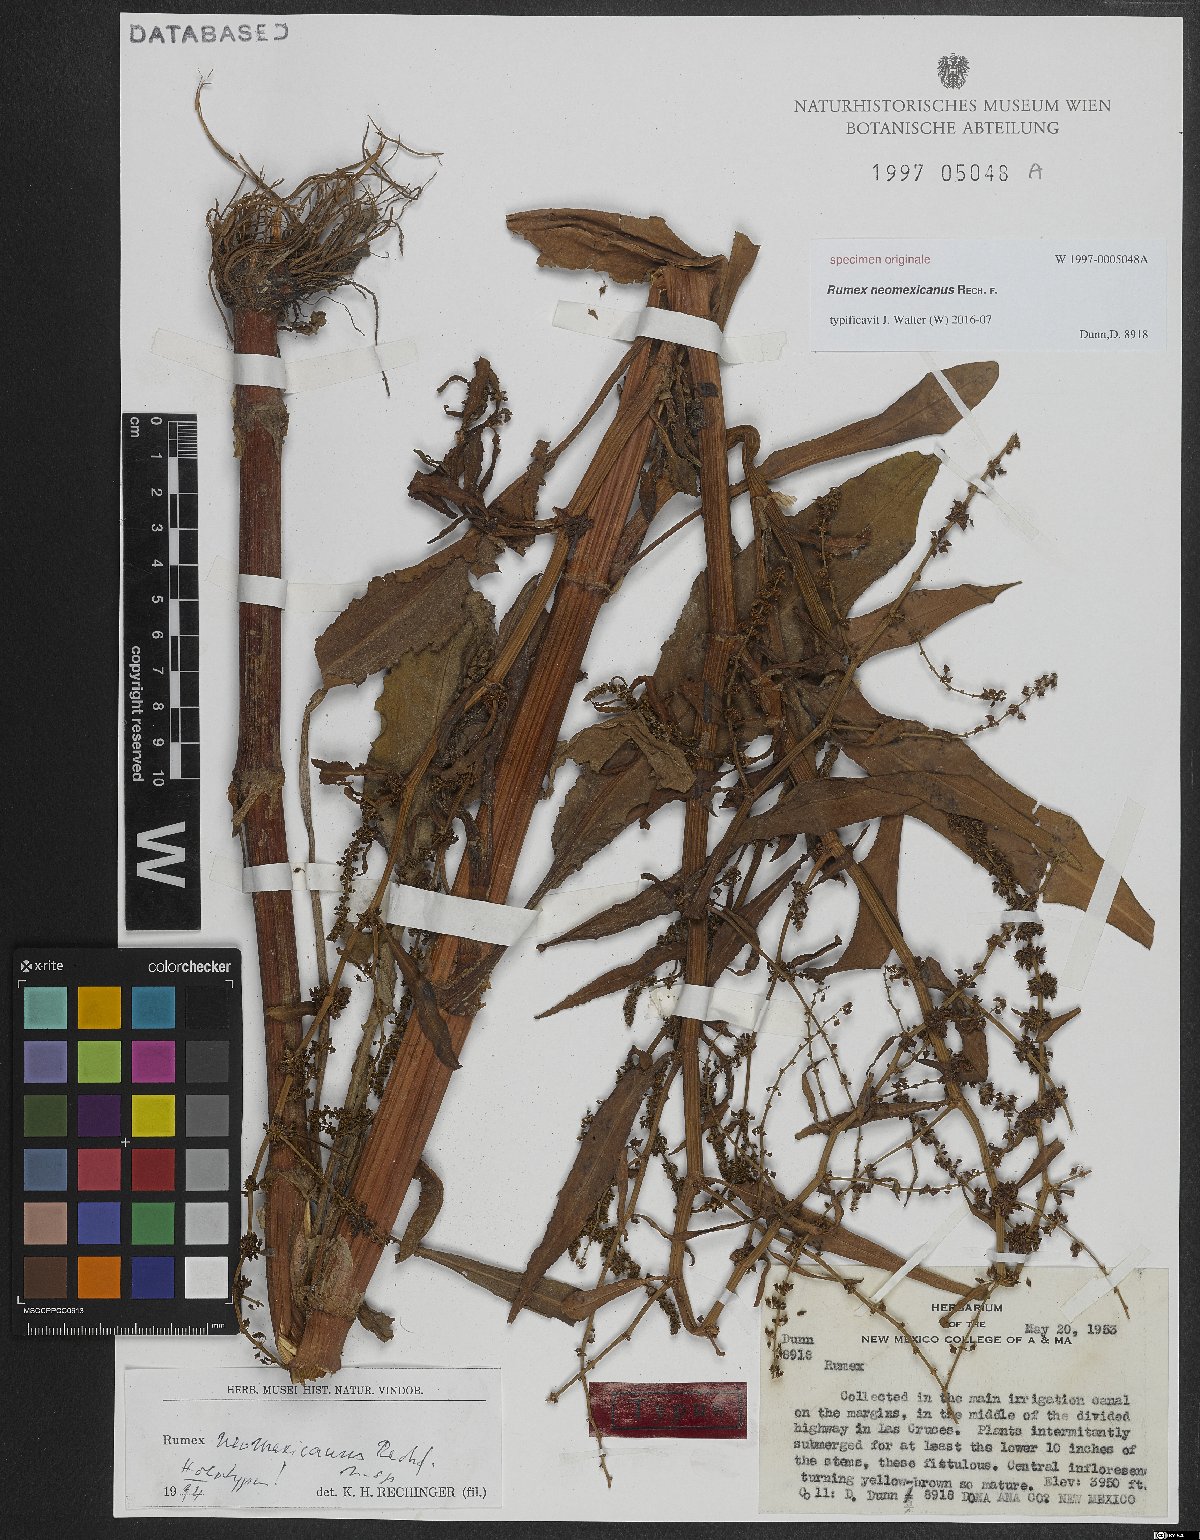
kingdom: Plantae
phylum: Tracheophyta
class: Magnoliopsida
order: Caryophyllales
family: Polygonaceae
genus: Rumex
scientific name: Rumex
